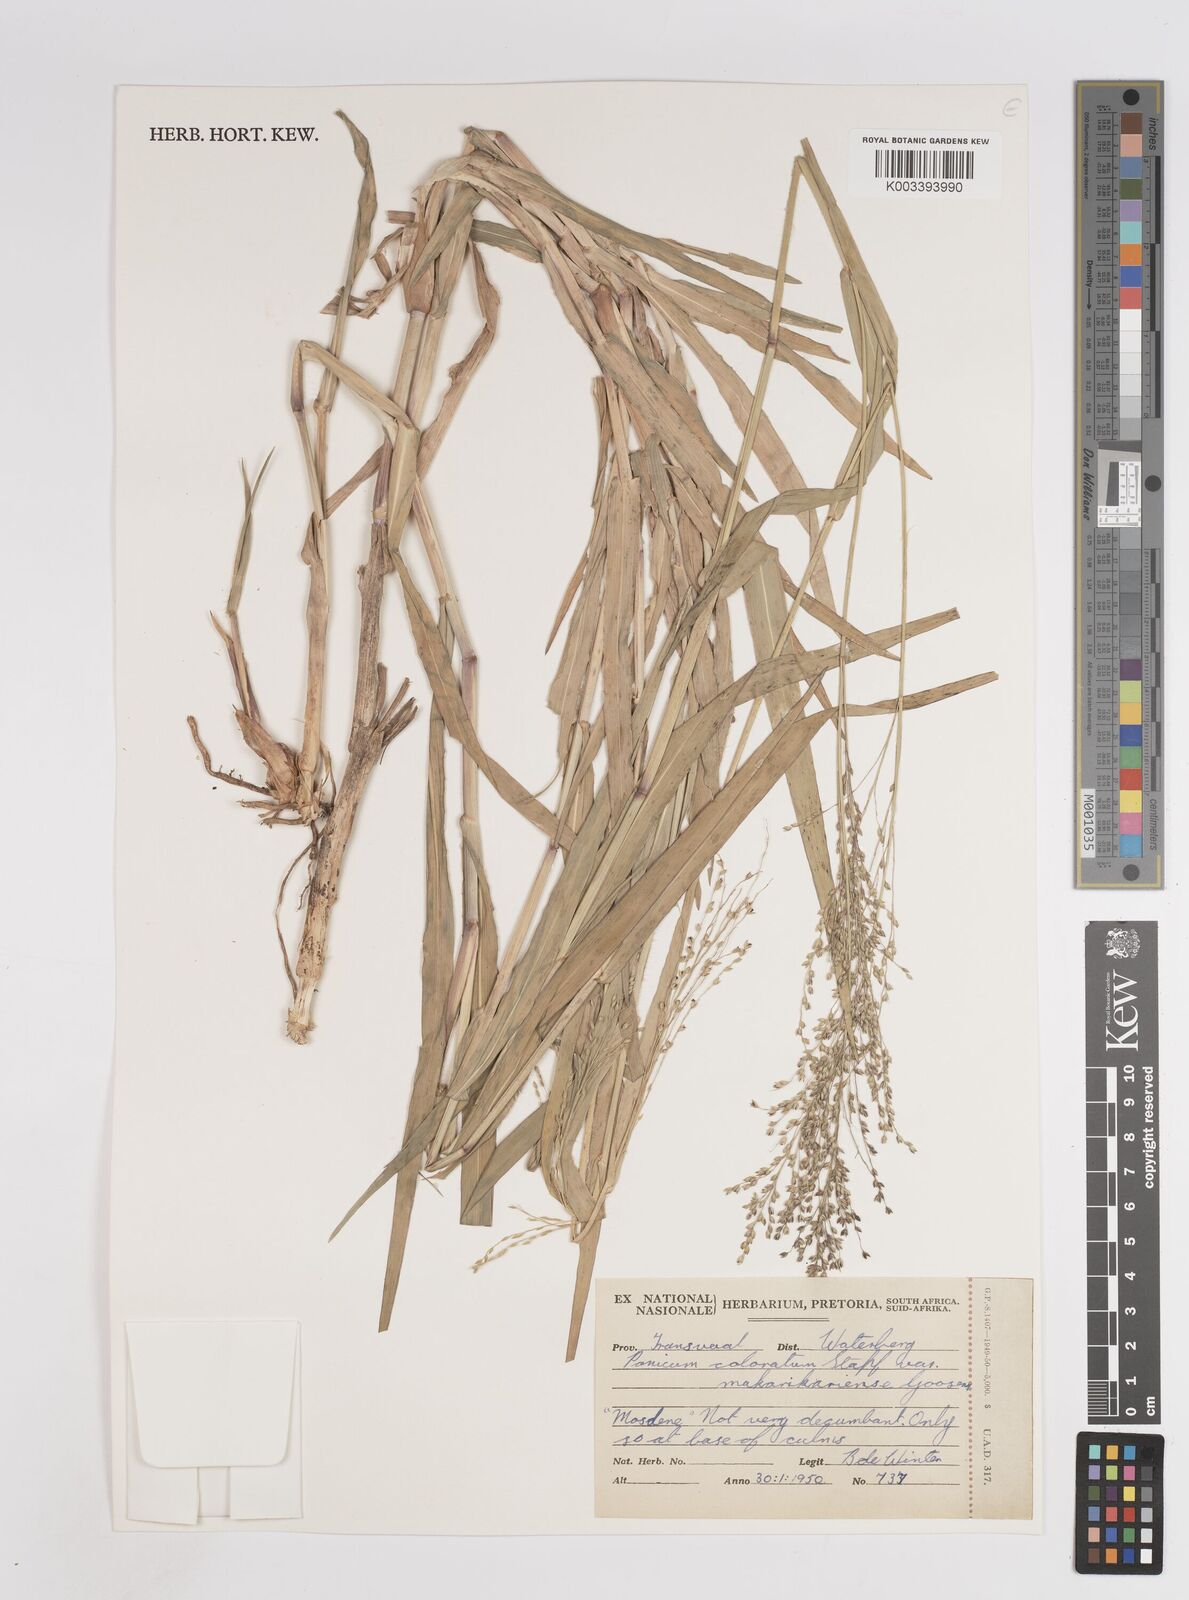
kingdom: Plantae
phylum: Tracheophyta
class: Liliopsida
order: Poales
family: Poaceae
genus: Panicum
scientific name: Panicum coloratum
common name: Kleingrass
